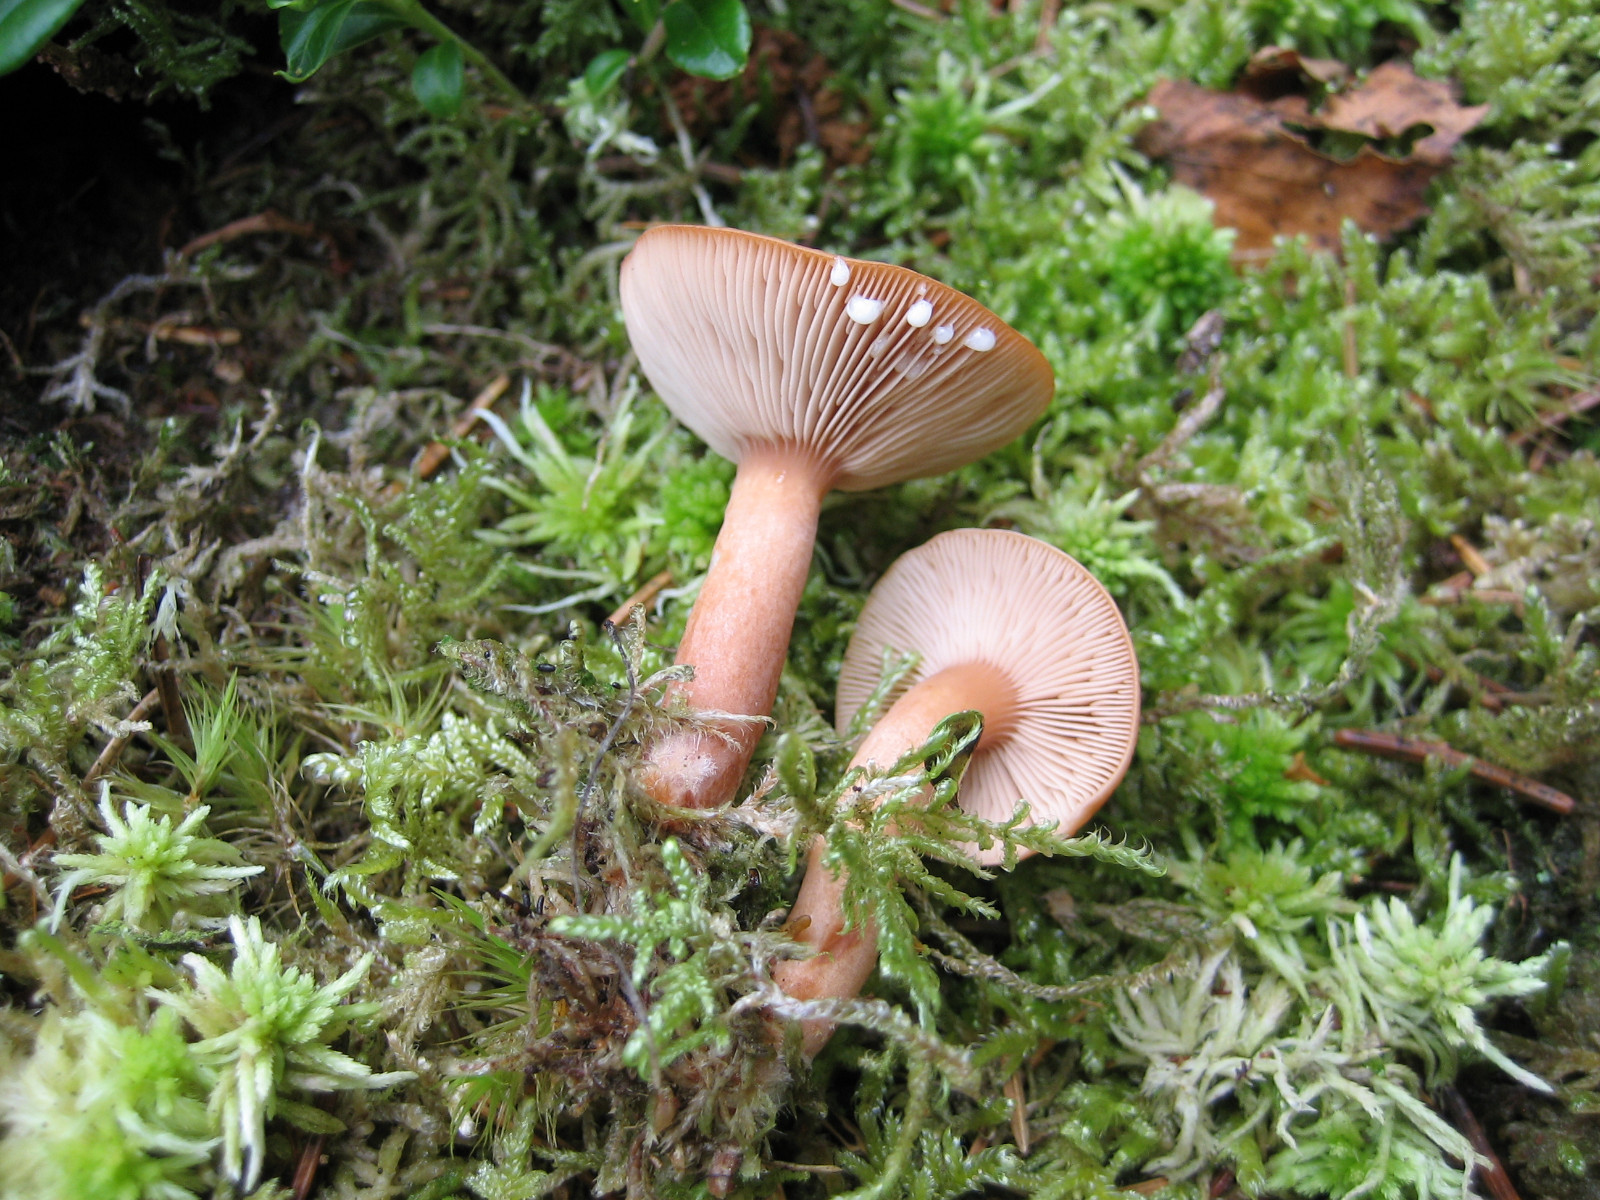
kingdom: Fungi
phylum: Basidiomycota
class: Agaricomycetes
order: Russulales
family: Russulaceae
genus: Lactarius
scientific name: Lactarius rufus
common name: rødbrun mælkehat
